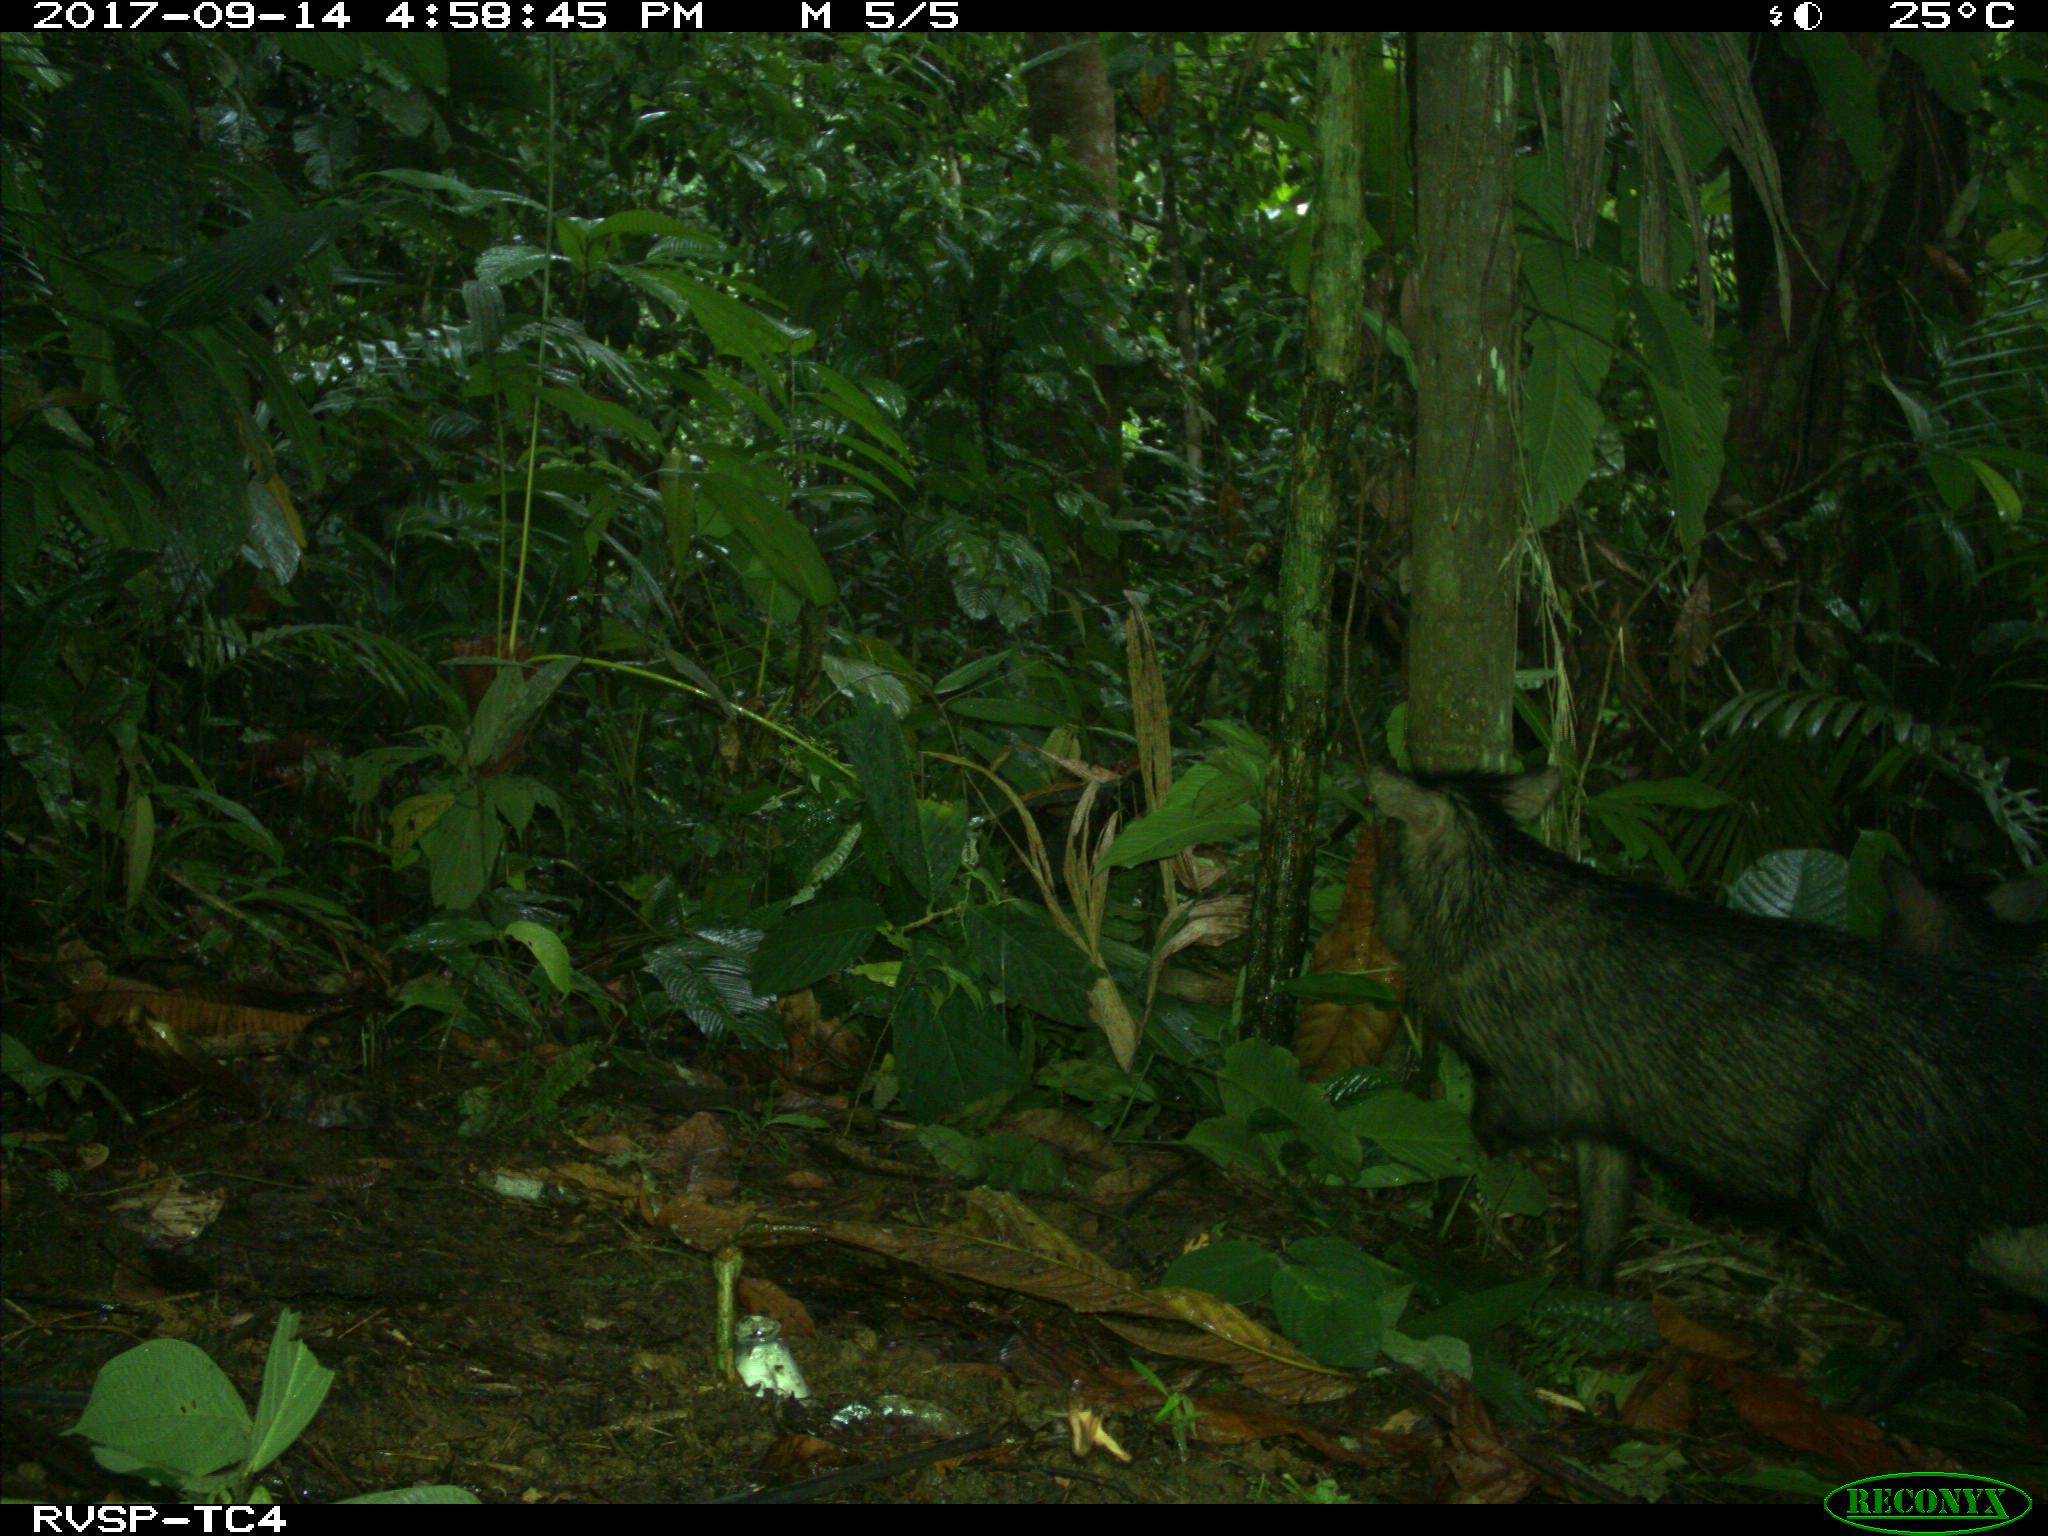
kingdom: Animalia
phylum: Chordata
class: Mammalia
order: Artiodactyla
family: Tayassuidae
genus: Pecari
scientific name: Pecari tajacu
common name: Collared peccary
